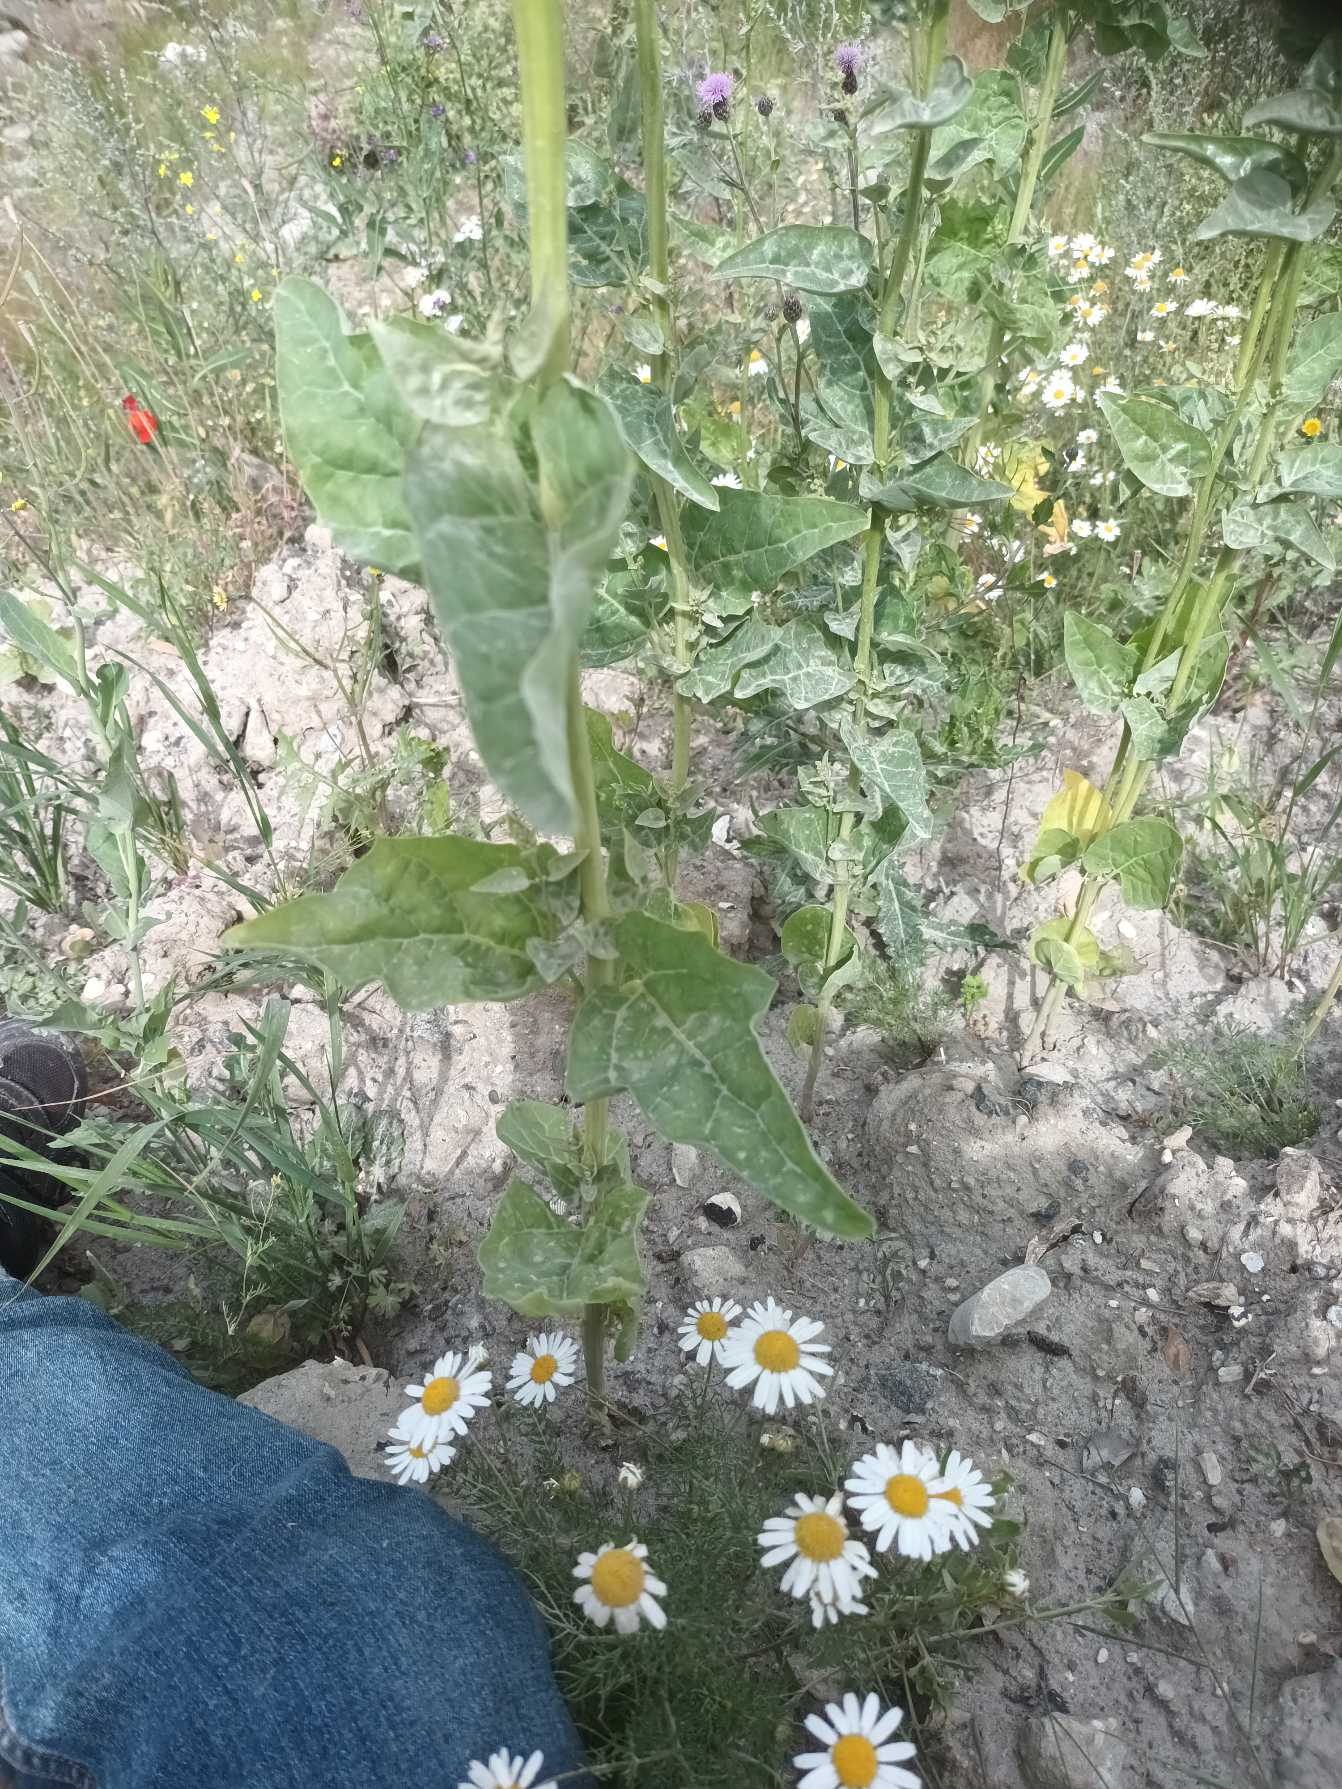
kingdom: Plantae
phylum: Tracheophyta
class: Magnoliopsida
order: Caryophyllales
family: Amaranthaceae
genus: Spinacia
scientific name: Spinacia oleracea
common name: Spinat
